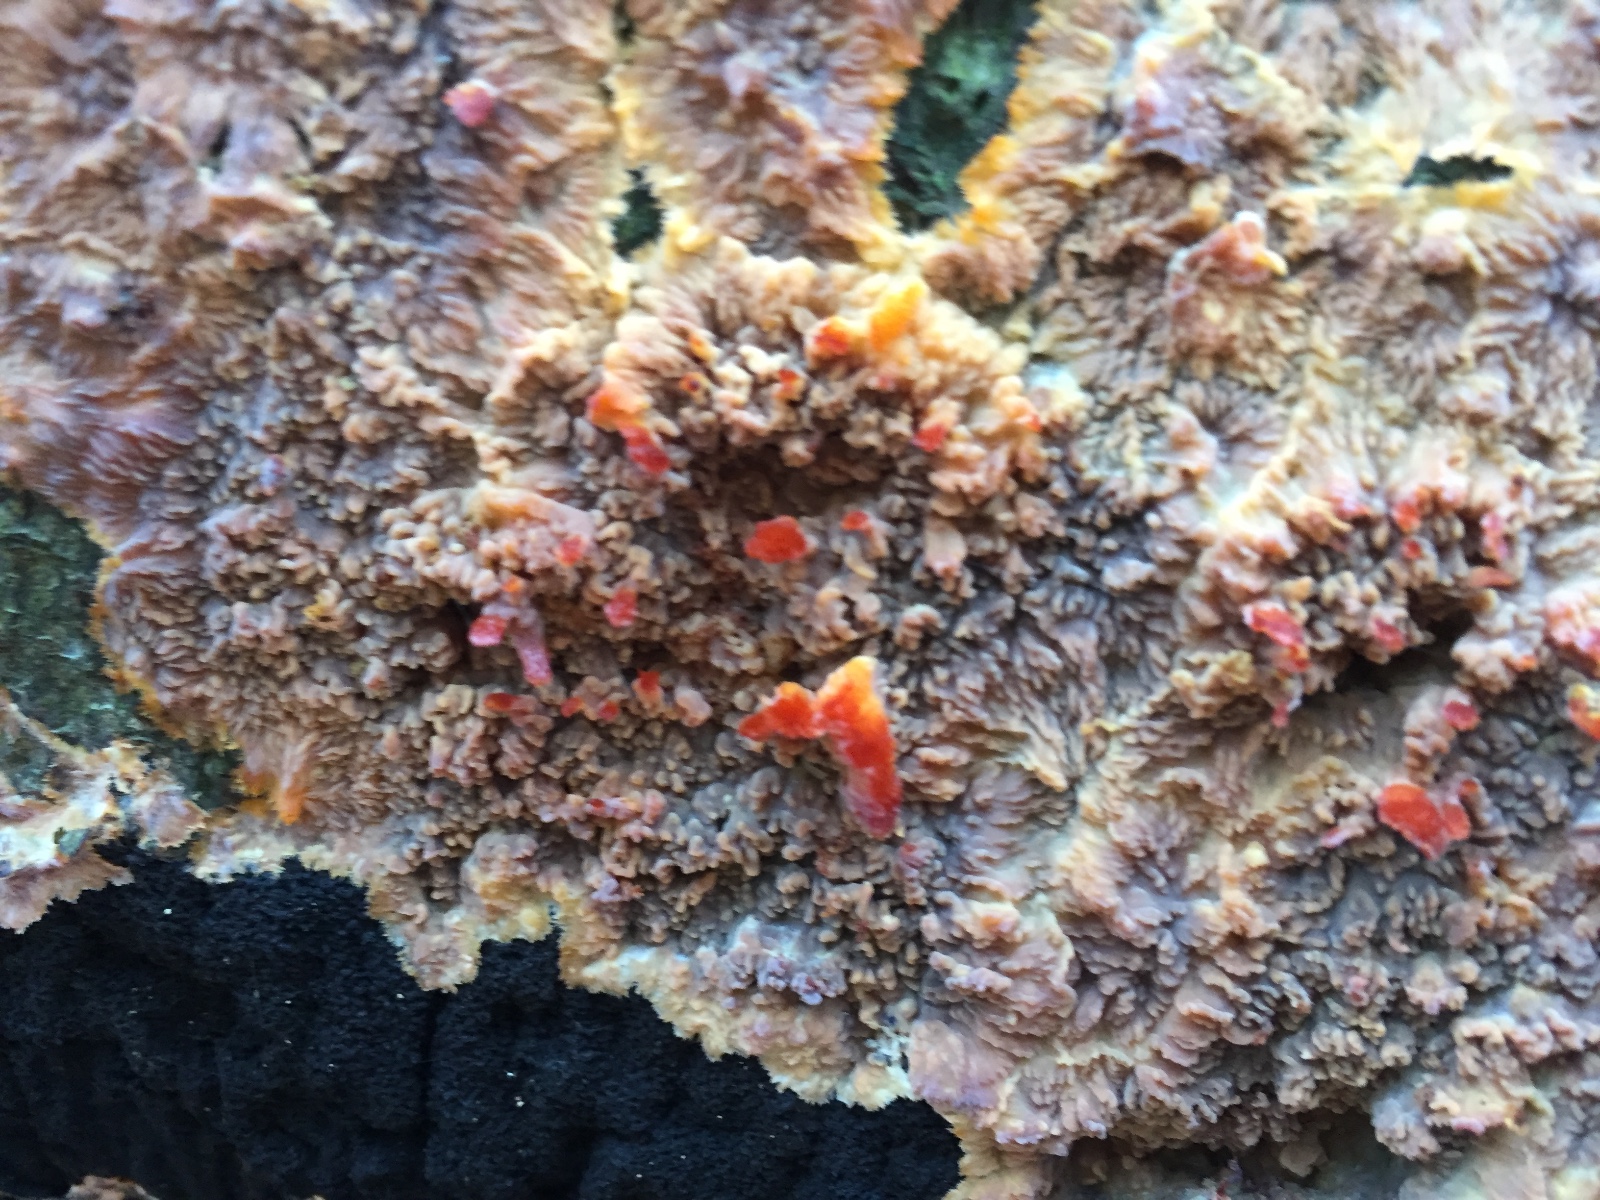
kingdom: Fungi
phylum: Basidiomycota
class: Agaricomycetes
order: Polyporales
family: Meruliaceae
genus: Phlebia
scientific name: Phlebia radiata
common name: stråle-åresvamp
